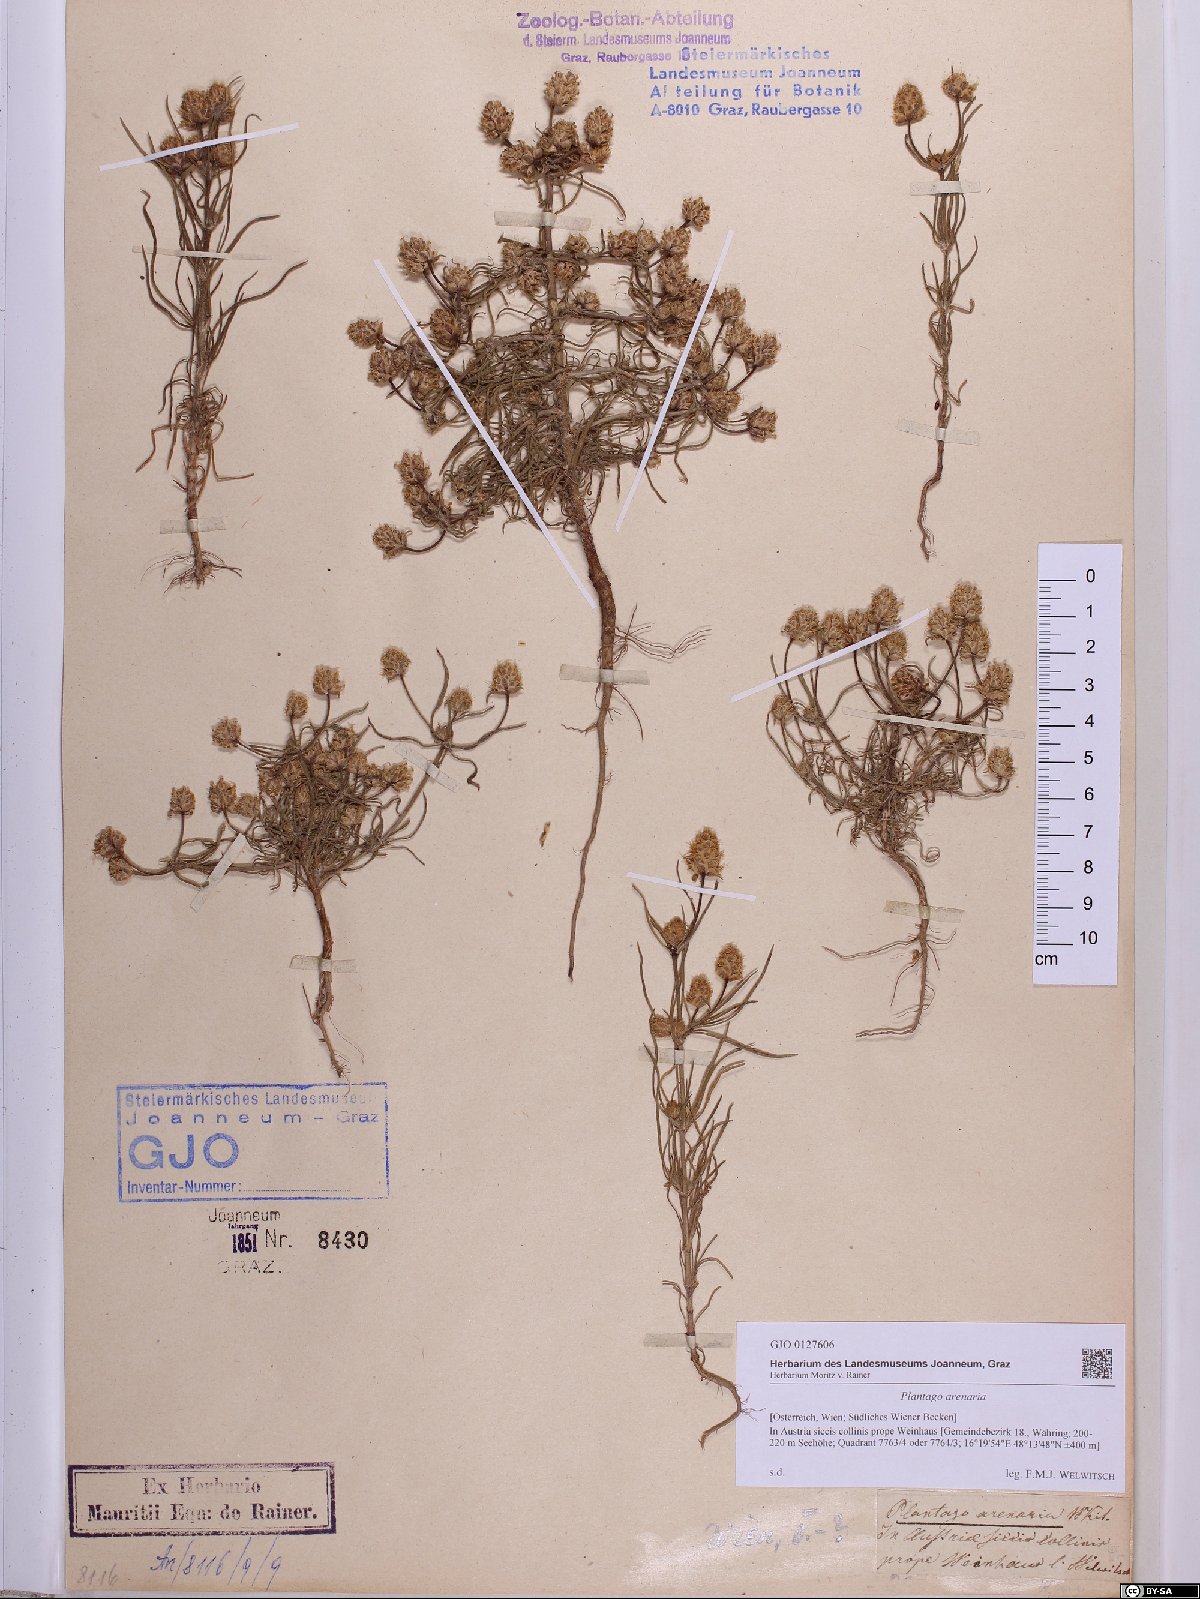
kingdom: Plantae
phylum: Tracheophyta
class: Magnoliopsida
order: Lamiales
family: Plantaginaceae
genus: Plantago
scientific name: Plantago arenaria
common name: Branched plantain
